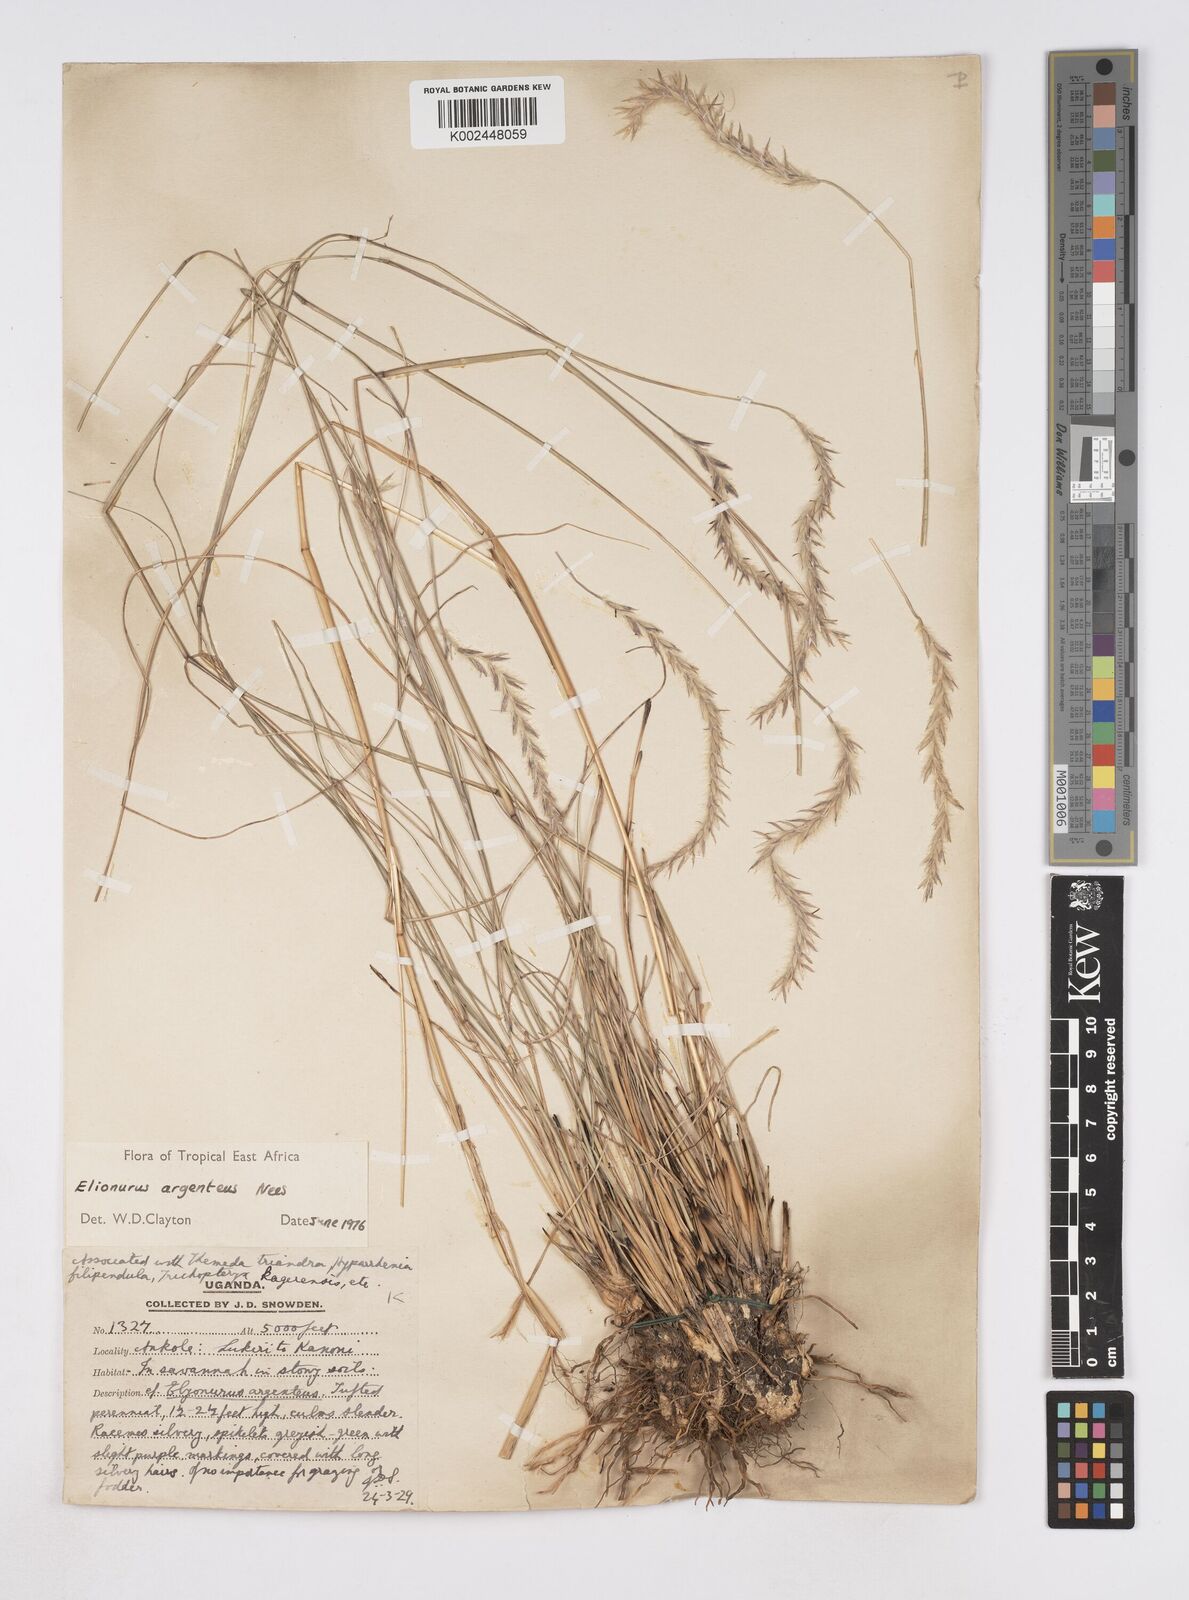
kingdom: Plantae
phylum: Tracheophyta
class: Liliopsida
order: Poales
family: Poaceae
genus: Elionurus
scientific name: Elionurus muticus
